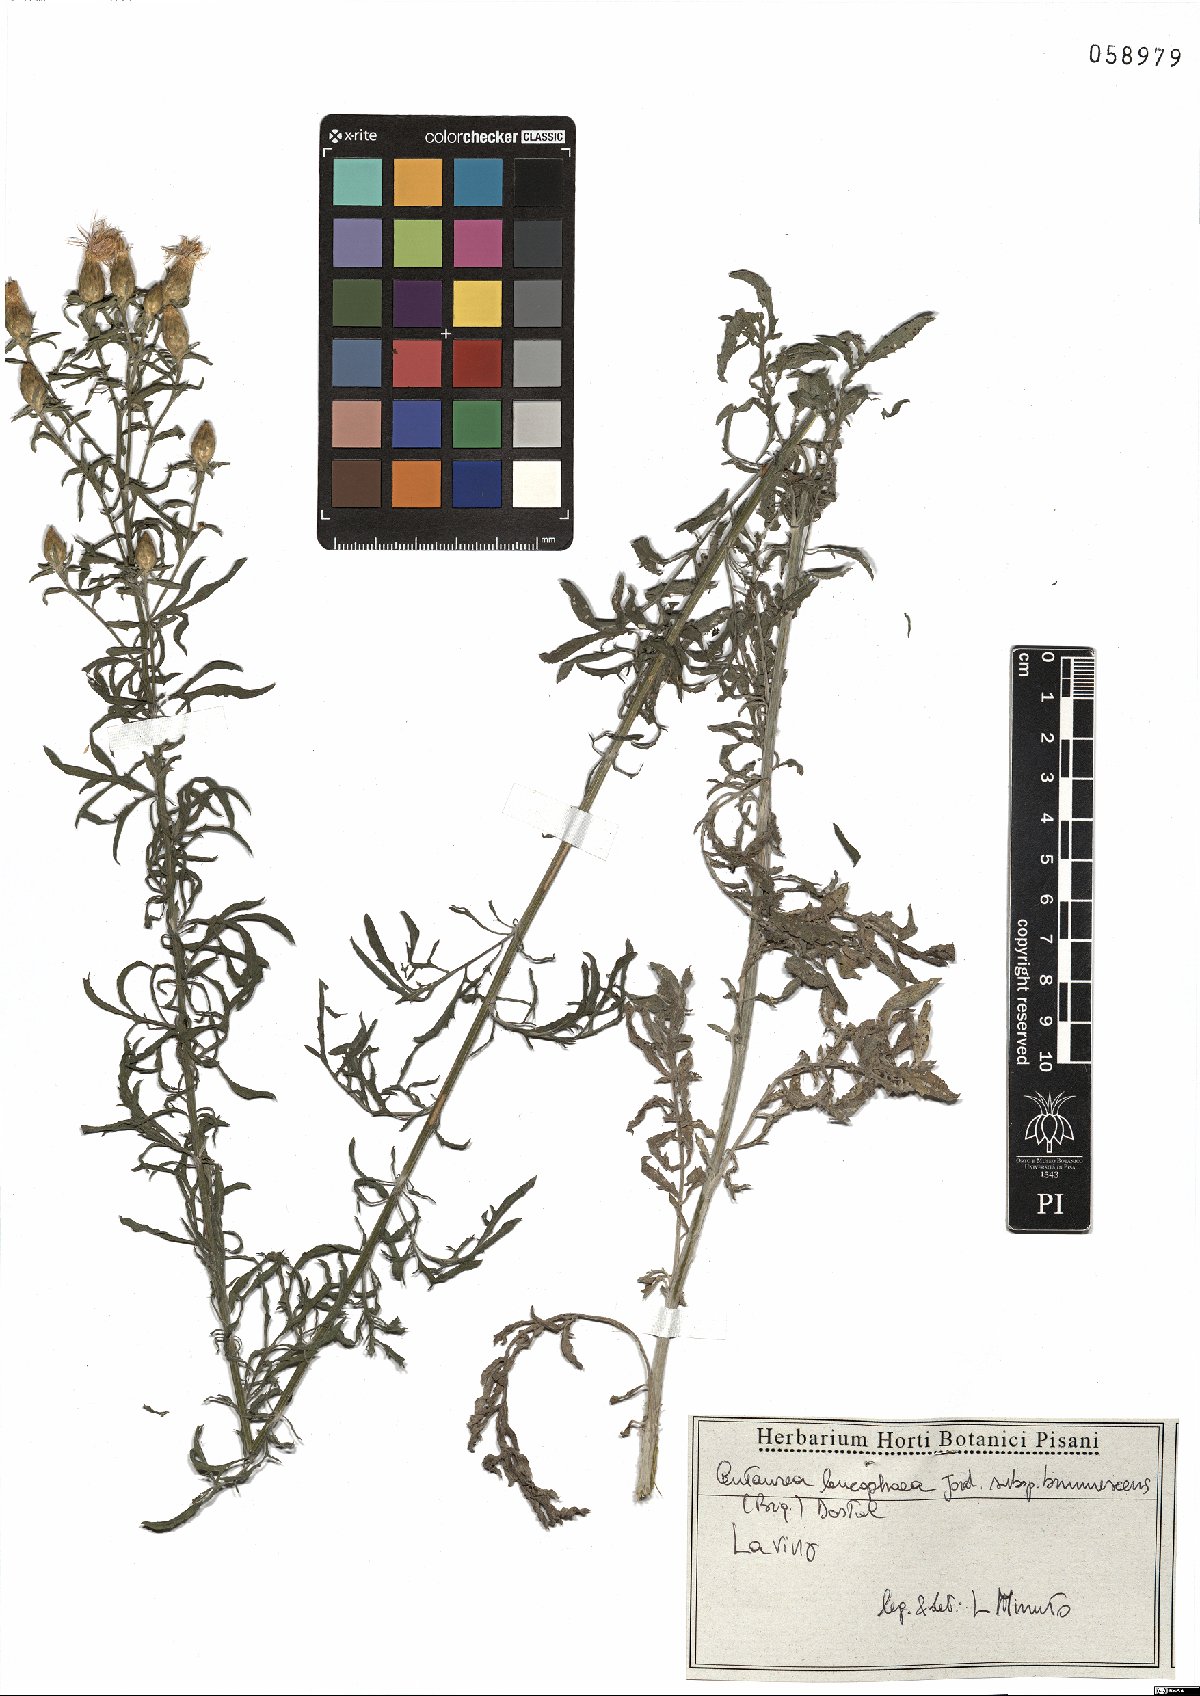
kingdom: Plantae
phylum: Tracheophyta
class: Magnoliopsida
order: Asterales
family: Asteraceae
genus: Centaurea
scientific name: Centaurea leucophaea
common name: Whitish-leaved knapweed
